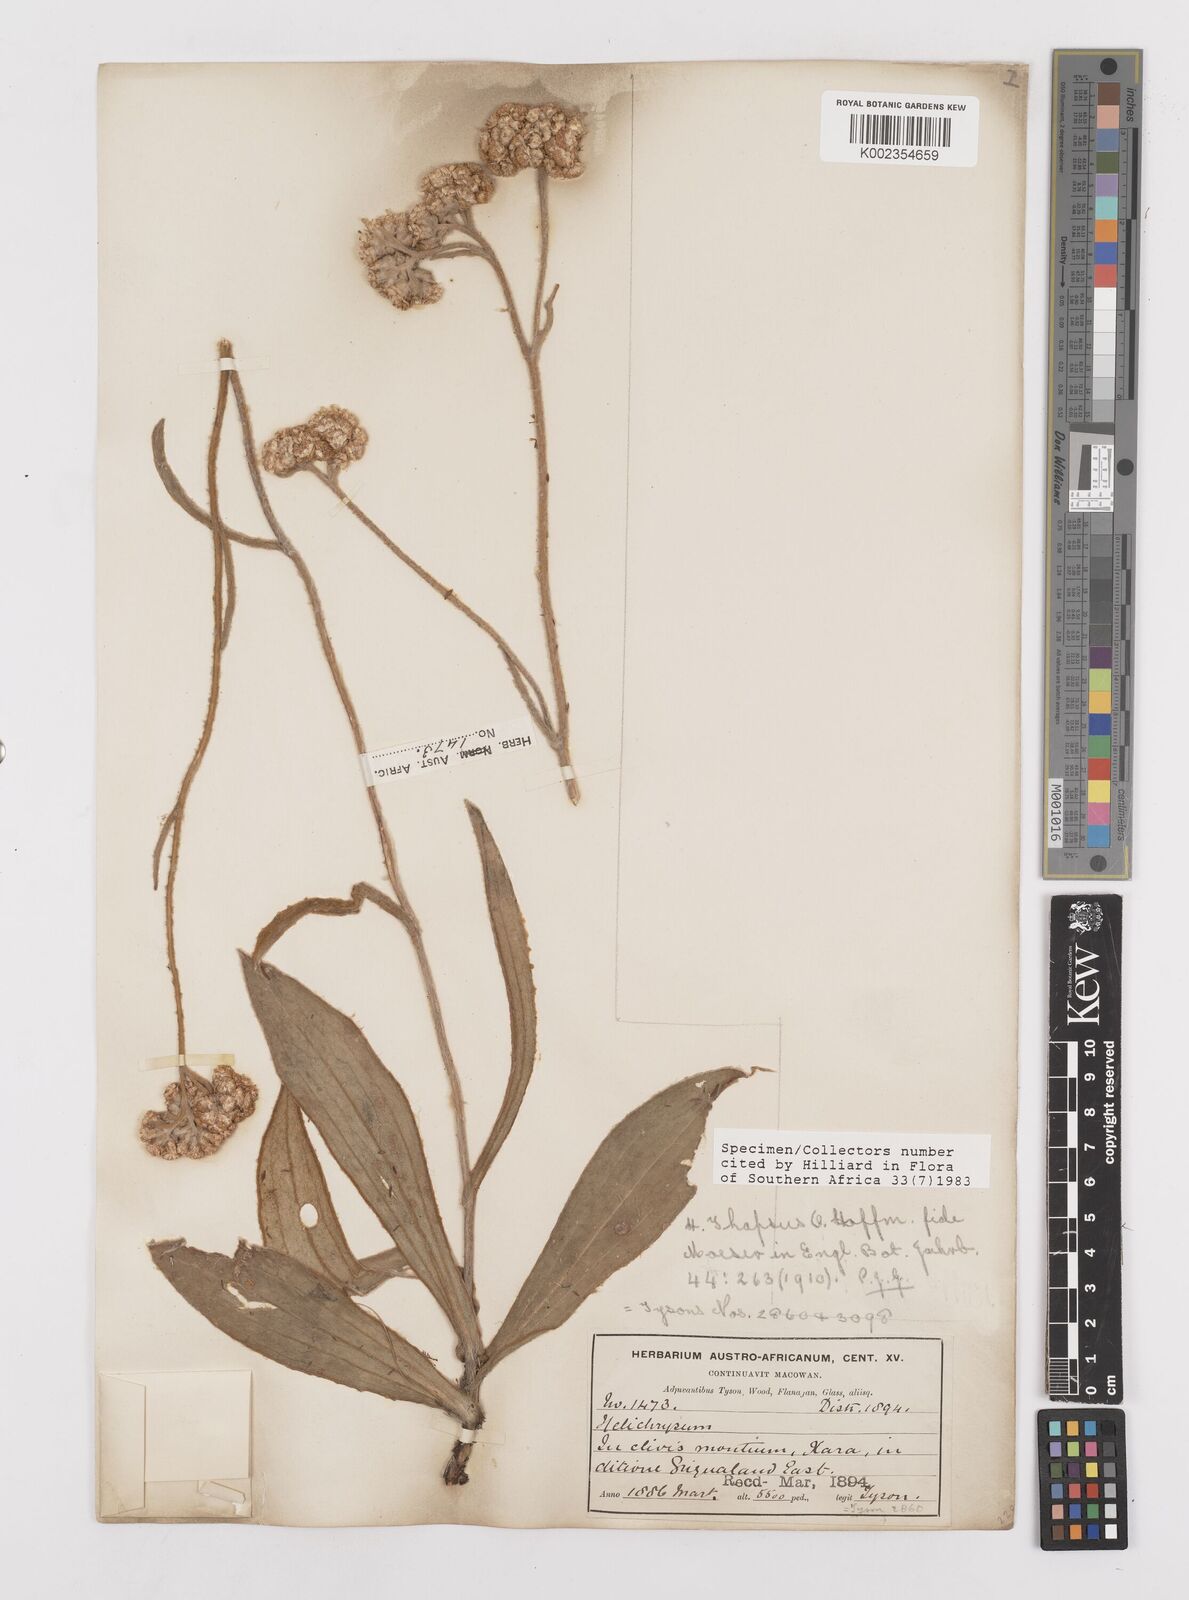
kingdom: Plantae
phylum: Tracheophyta
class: Magnoliopsida
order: Asterales
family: Asteraceae
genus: Helichrysum
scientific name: Helichrysum thapsus
